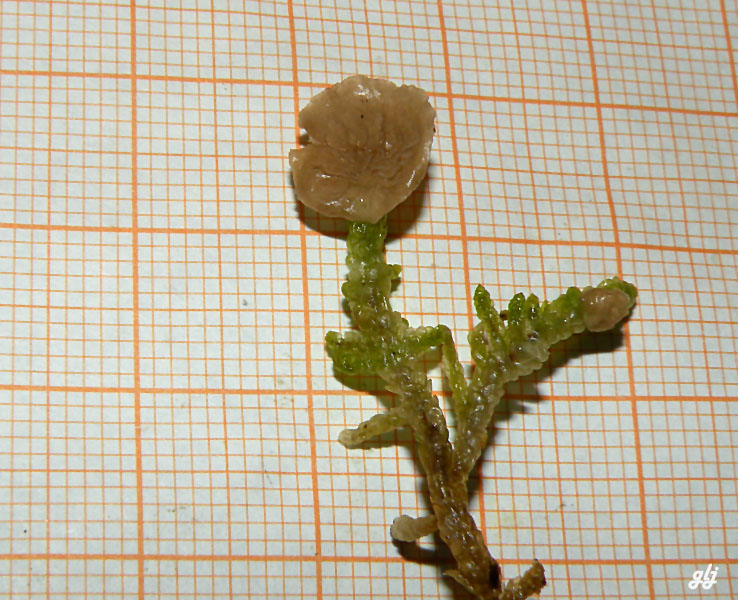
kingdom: Fungi
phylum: Basidiomycota
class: Agaricomycetes
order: Agaricales
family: Hygrophoraceae
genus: Arrhenia
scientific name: Arrhenia retiruga
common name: lille fontænehat
